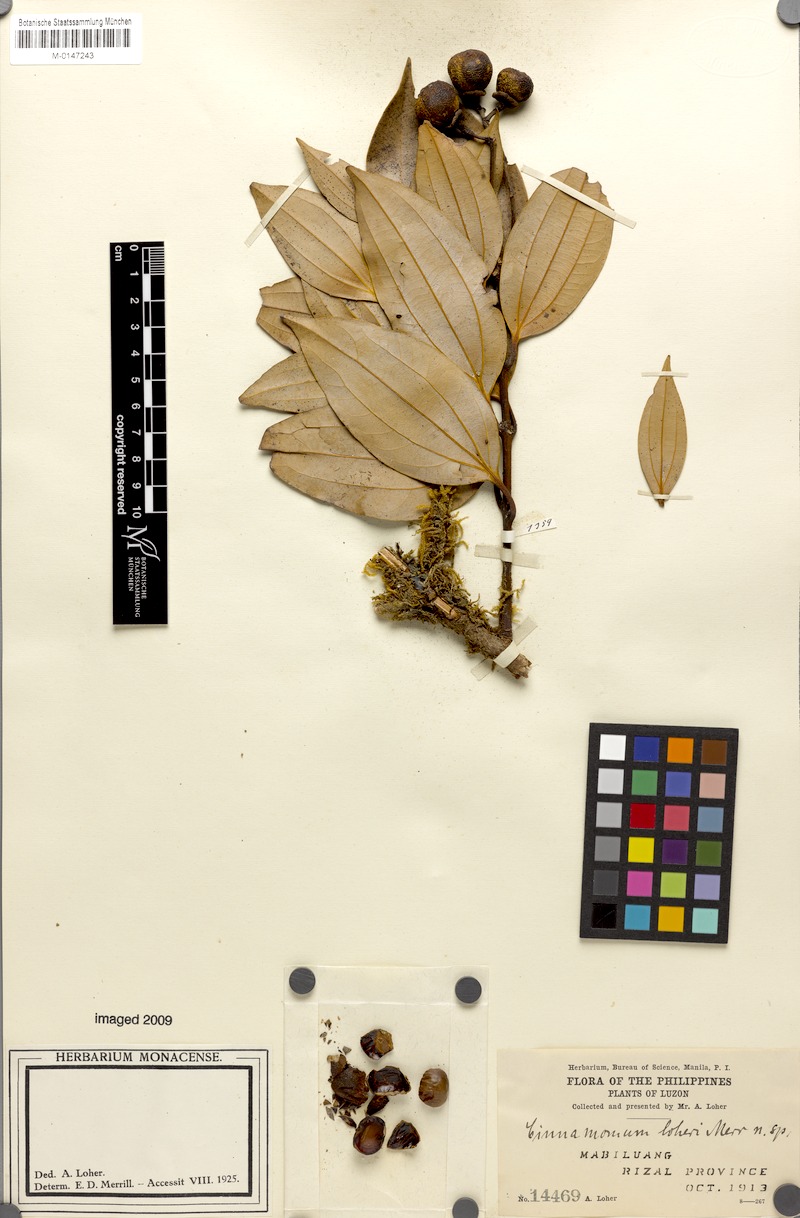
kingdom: Plantae
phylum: Tracheophyta
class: Magnoliopsida
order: Laurales
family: Lauraceae
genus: Cinnamomum
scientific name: Cinnamomum loheri
